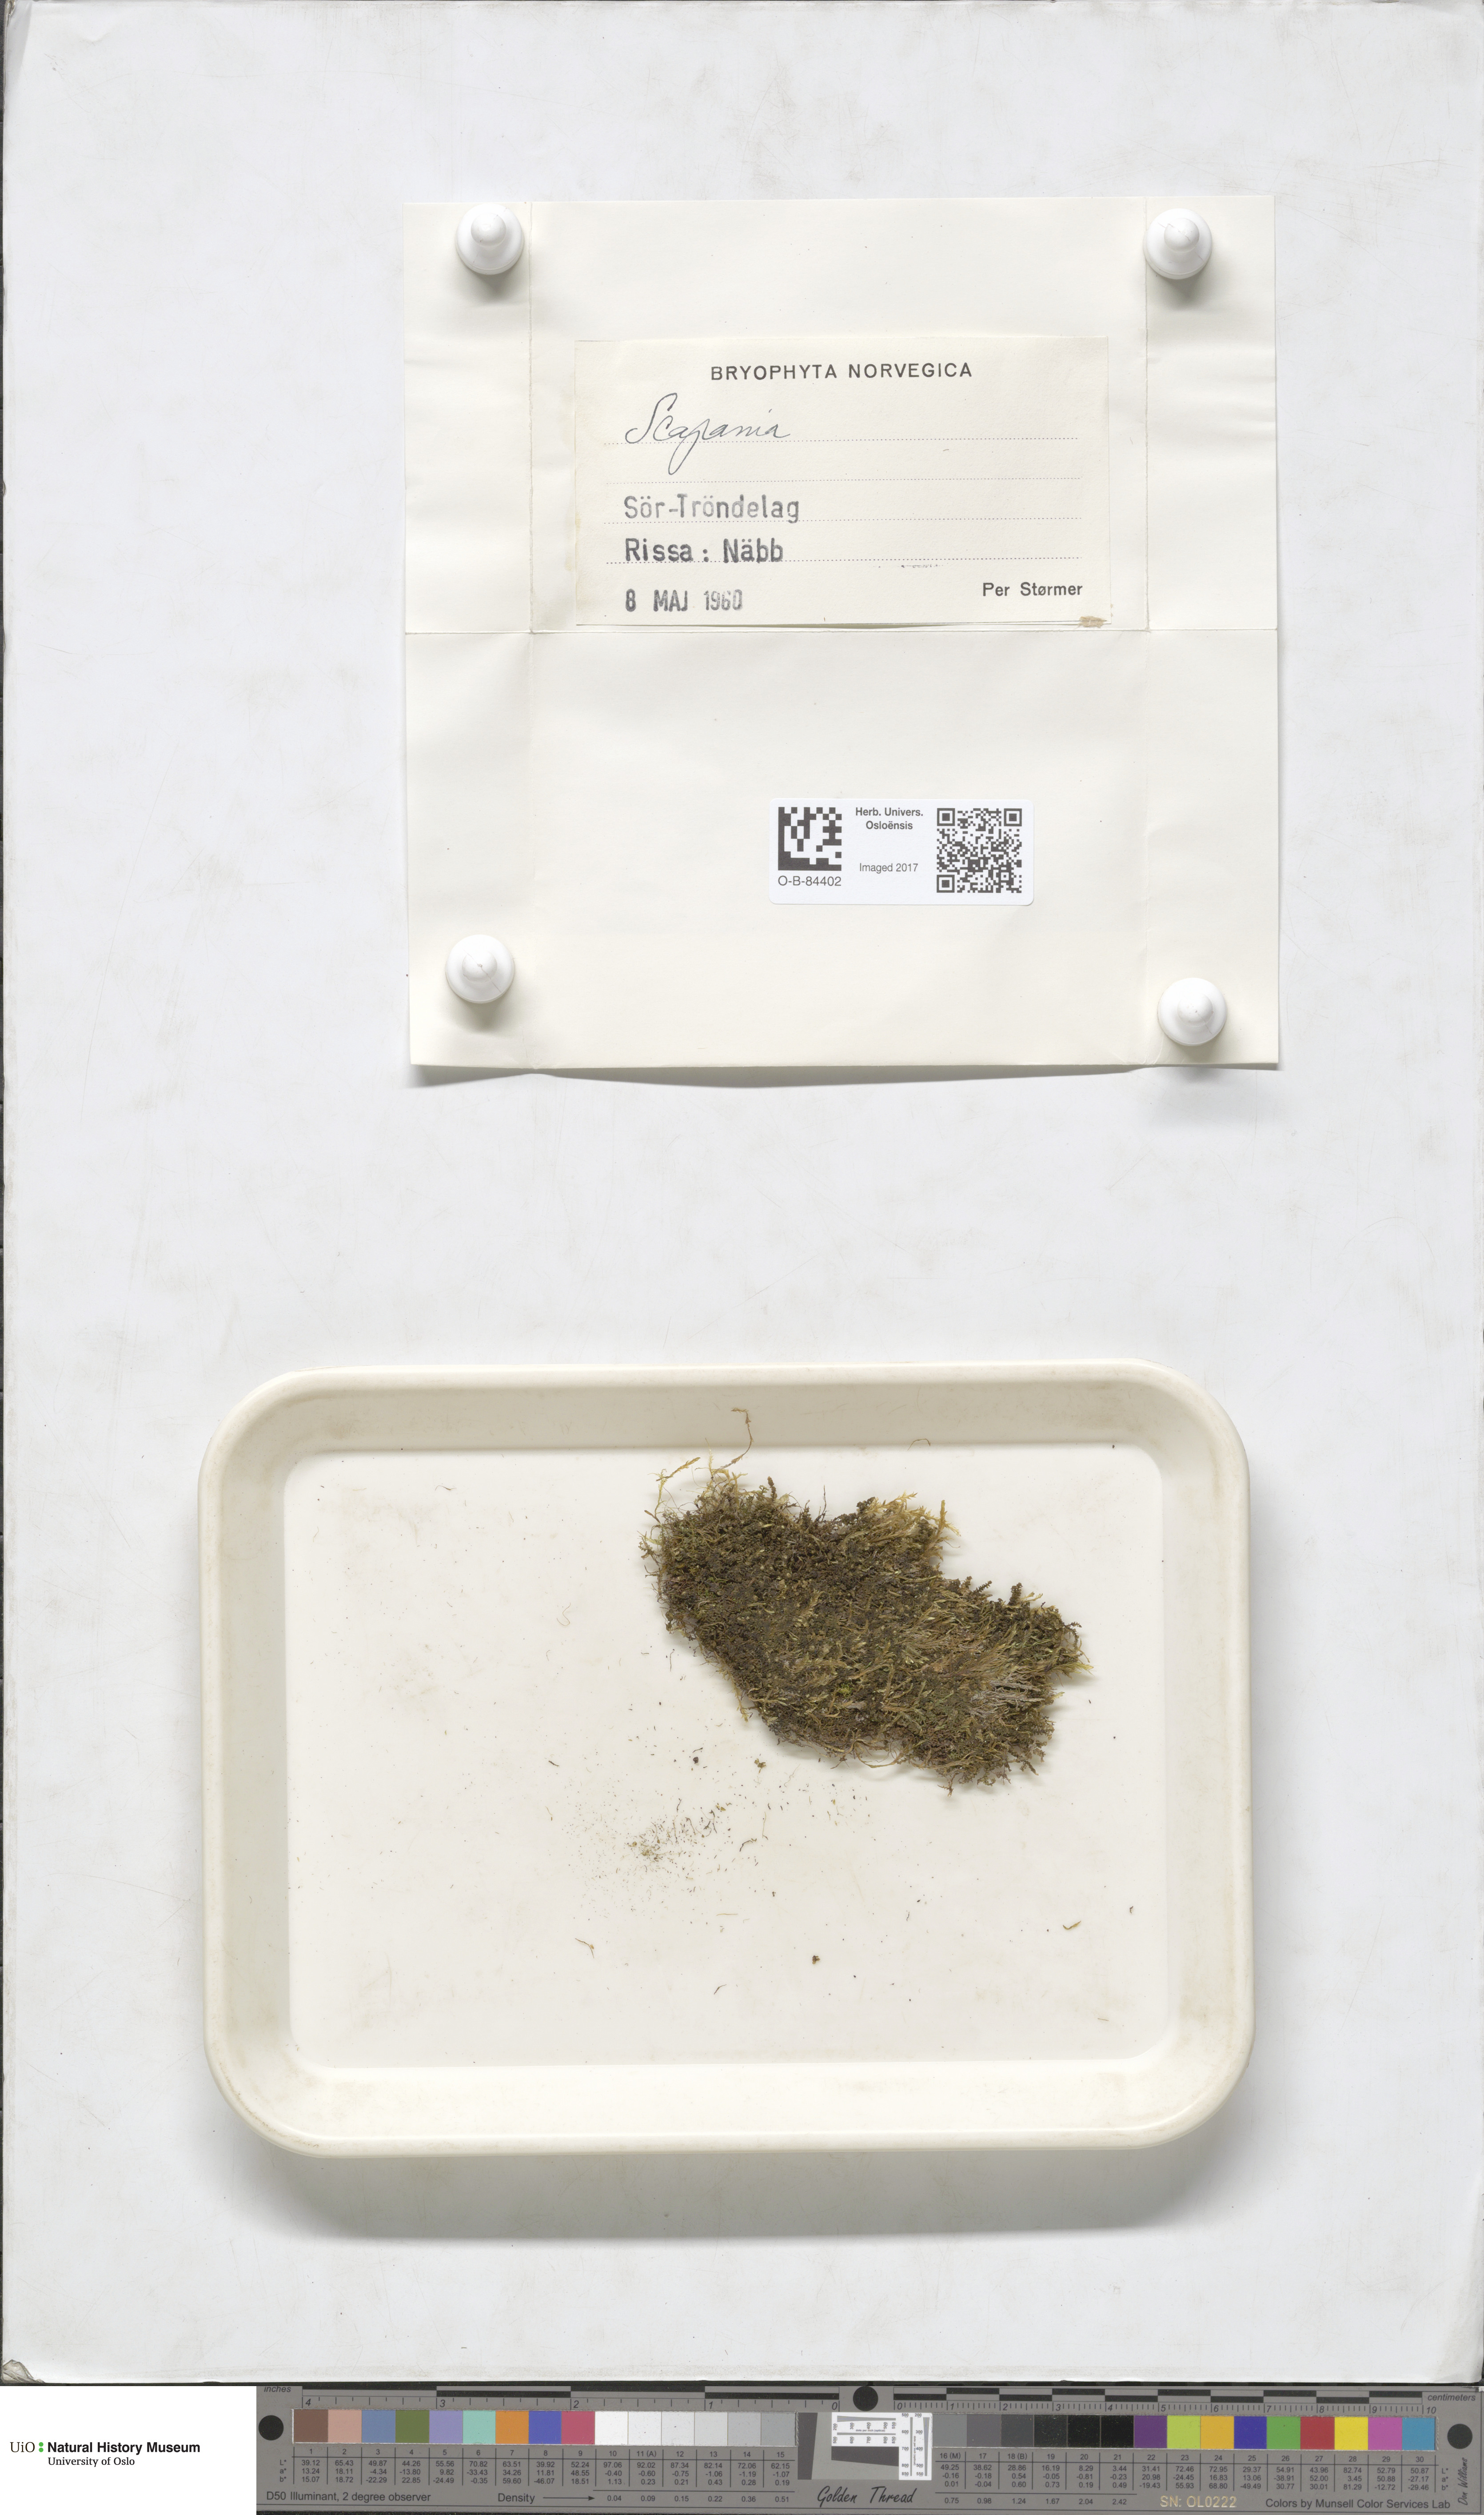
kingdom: Plantae
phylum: Marchantiophyta
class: Jungermanniopsida
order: Jungermanniales
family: Scapaniaceae
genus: Scapania
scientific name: Scapania
